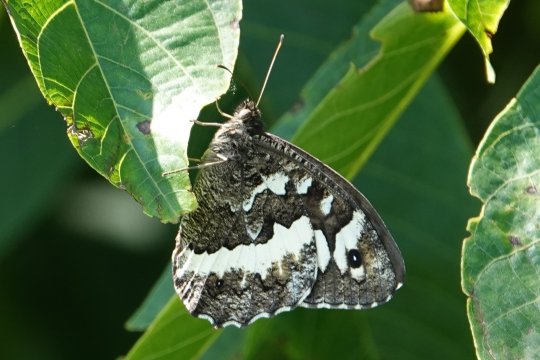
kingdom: Animalia
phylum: Arthropoda
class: Insecta
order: Lepidoptera
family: Lycaenidae
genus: Loweia
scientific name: Loweia tityrus
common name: Great Banded Grayling
